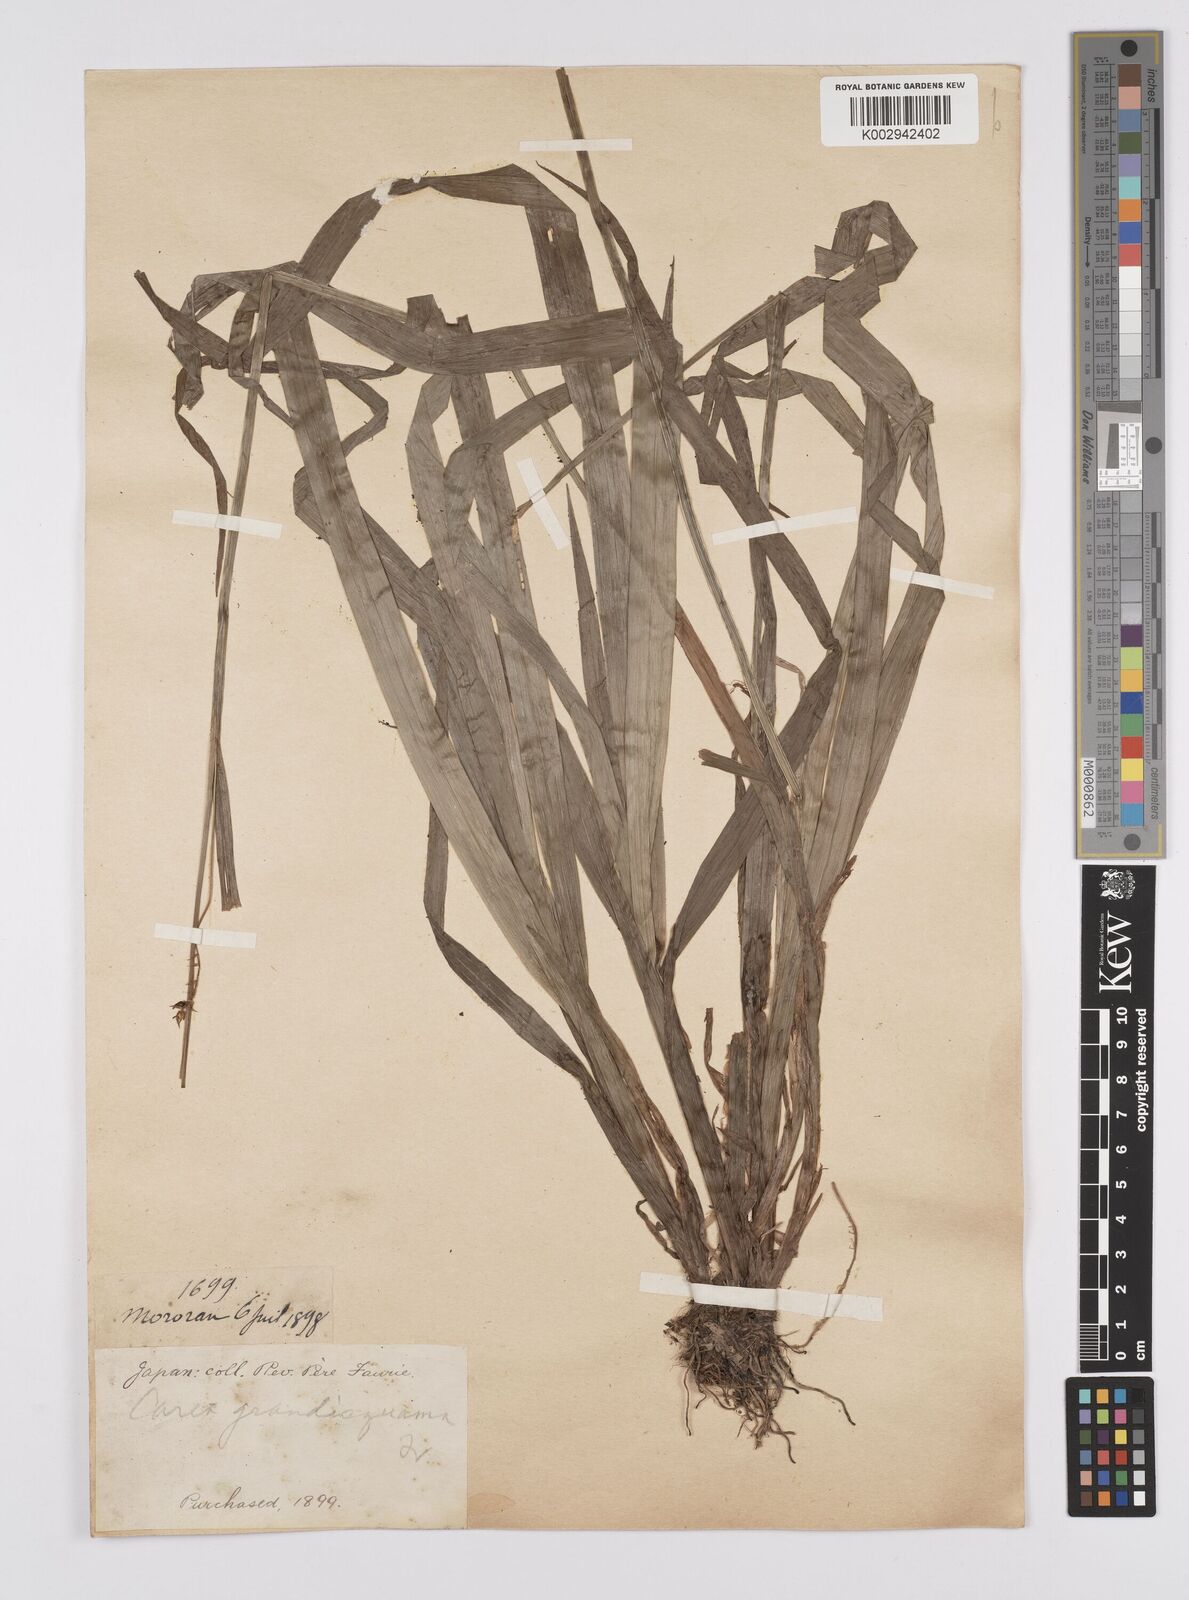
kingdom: Plantae
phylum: Tracheophyta
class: Liliopsida
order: Poales
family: Cyperaceae
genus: Carex
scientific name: Carex papulosa
